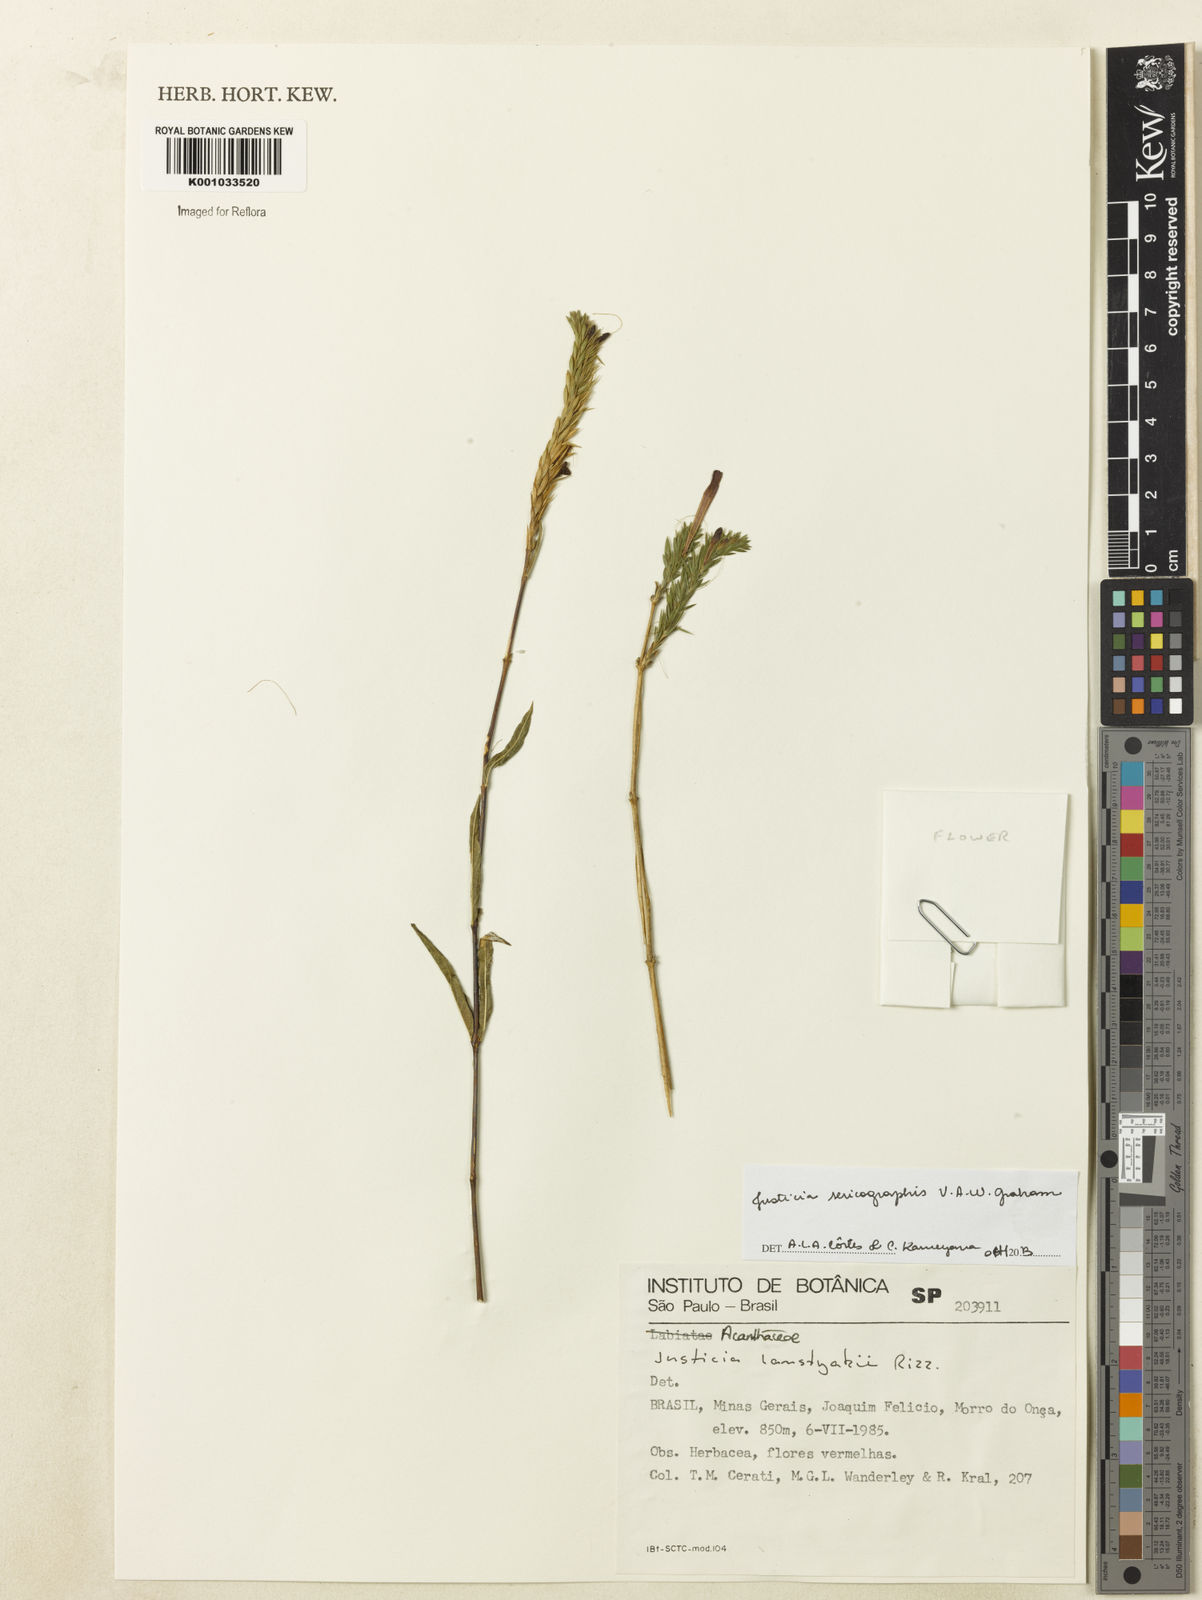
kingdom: Plantae
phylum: Tracheophyta
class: Magnoliopsida
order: Lamiales
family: Acanthaceae
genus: Dianthera
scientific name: Dianthera rigida
